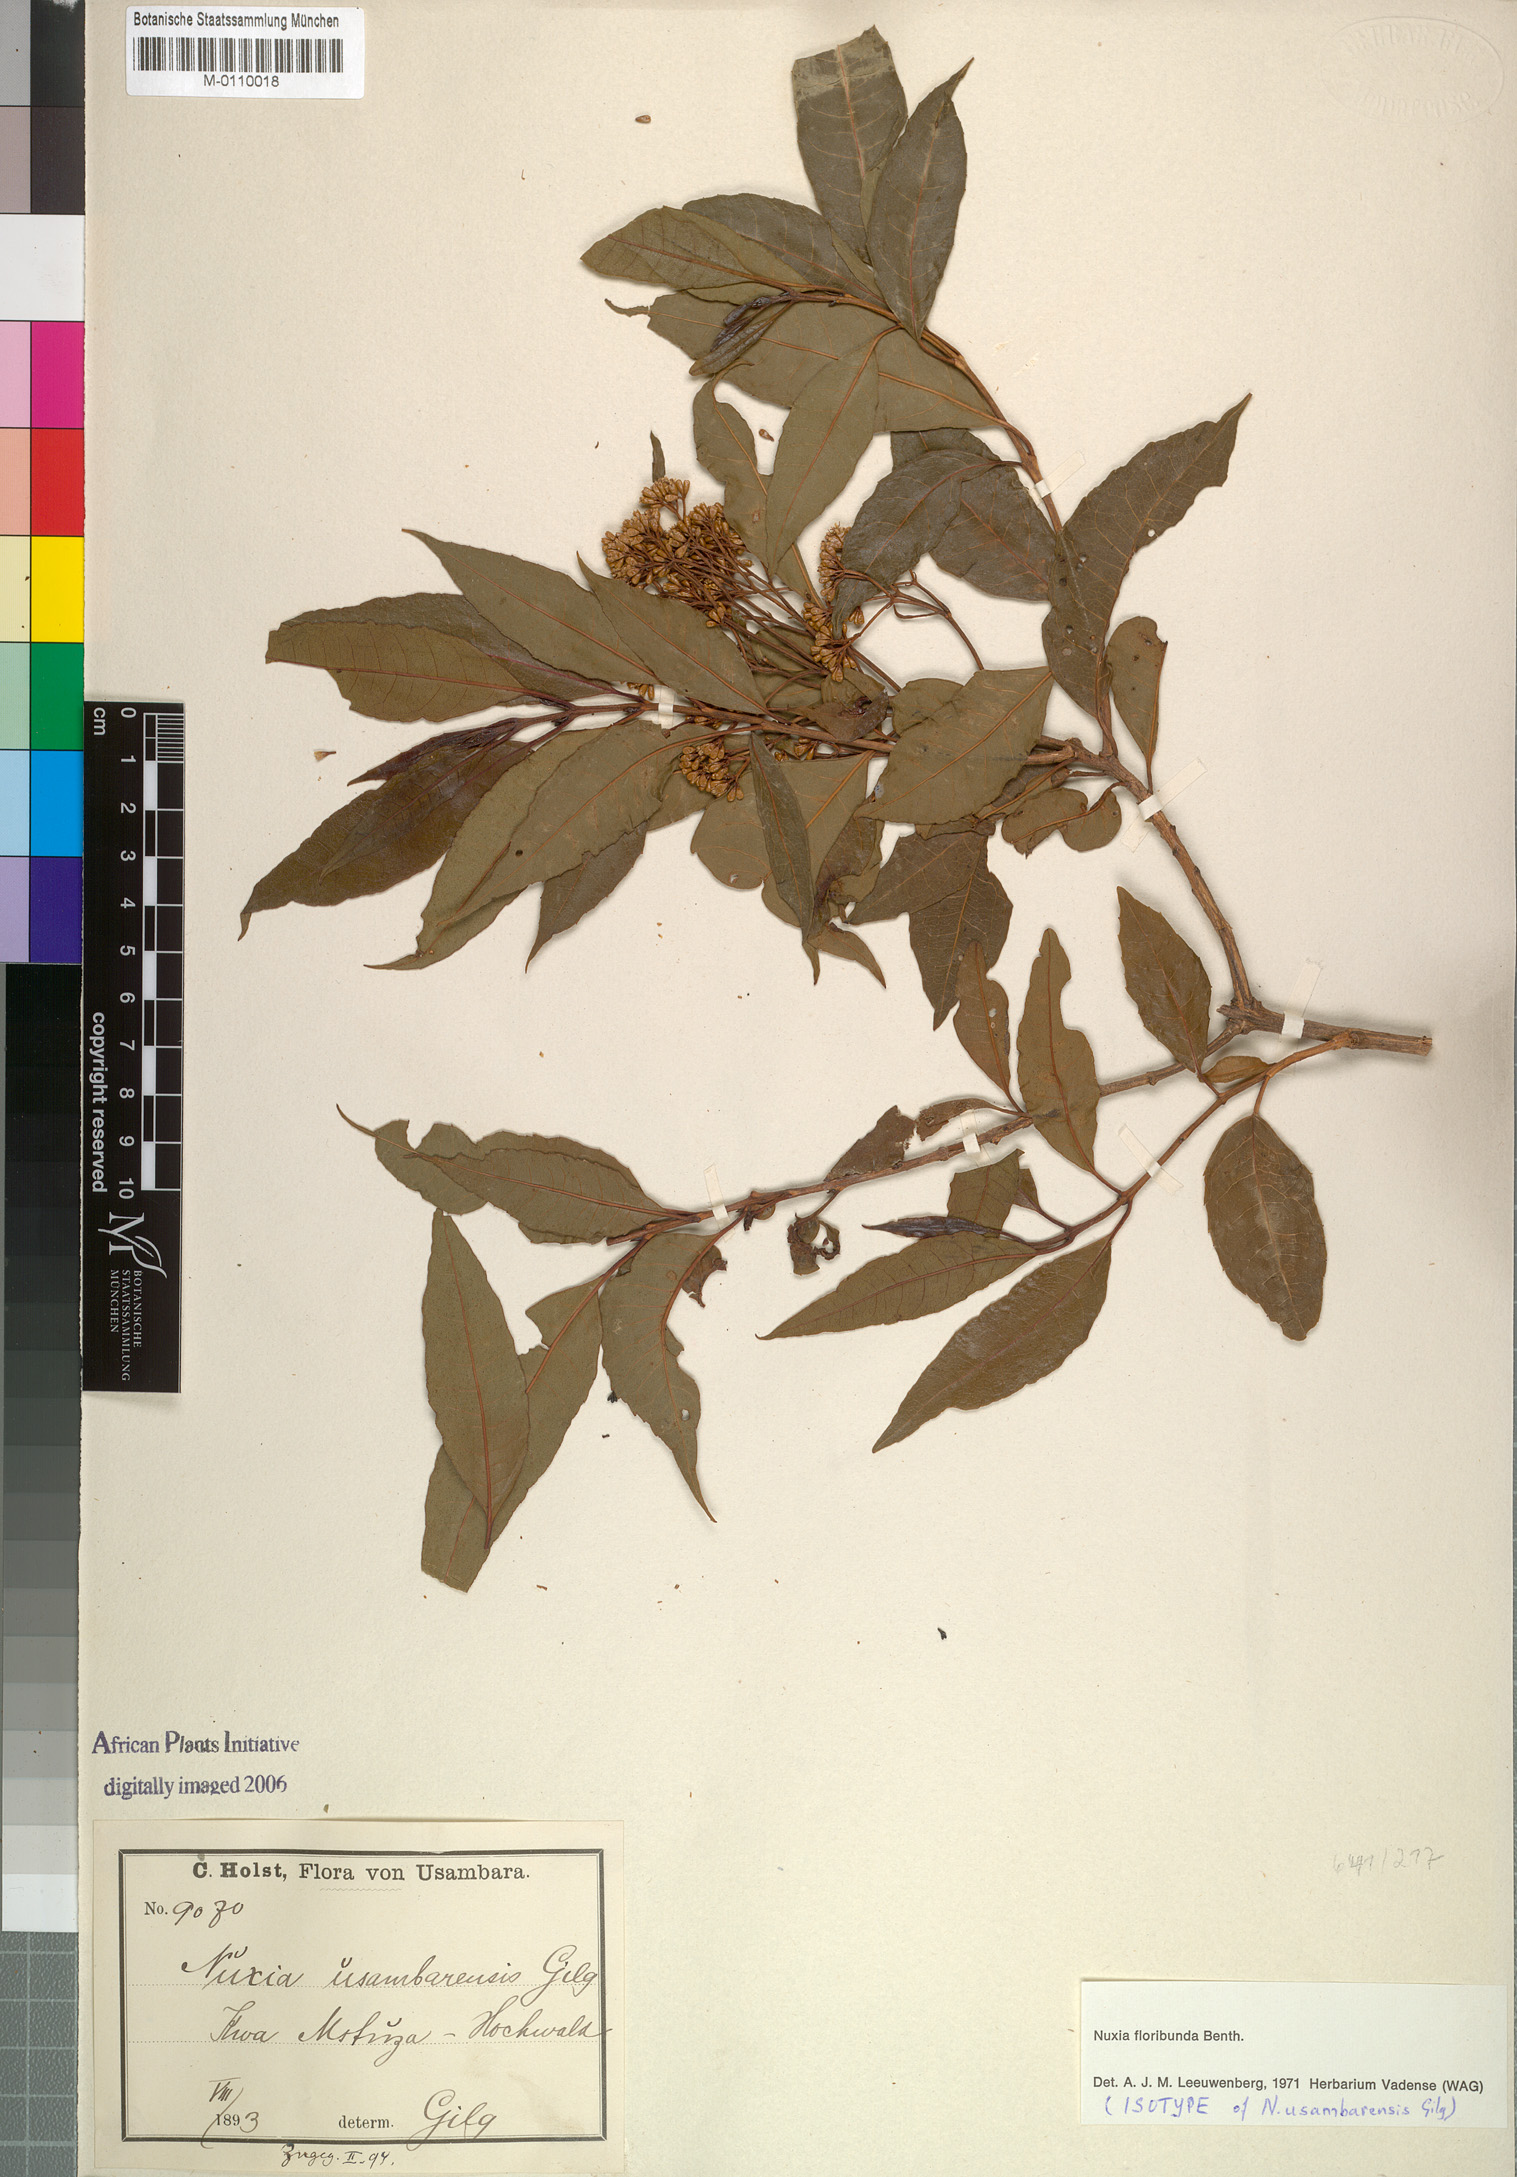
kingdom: Plantae
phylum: Tracheophyta
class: Magnoliopsida
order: Lamiales
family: Stilbaceae
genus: Nuxia
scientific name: Nuxia floribunda
